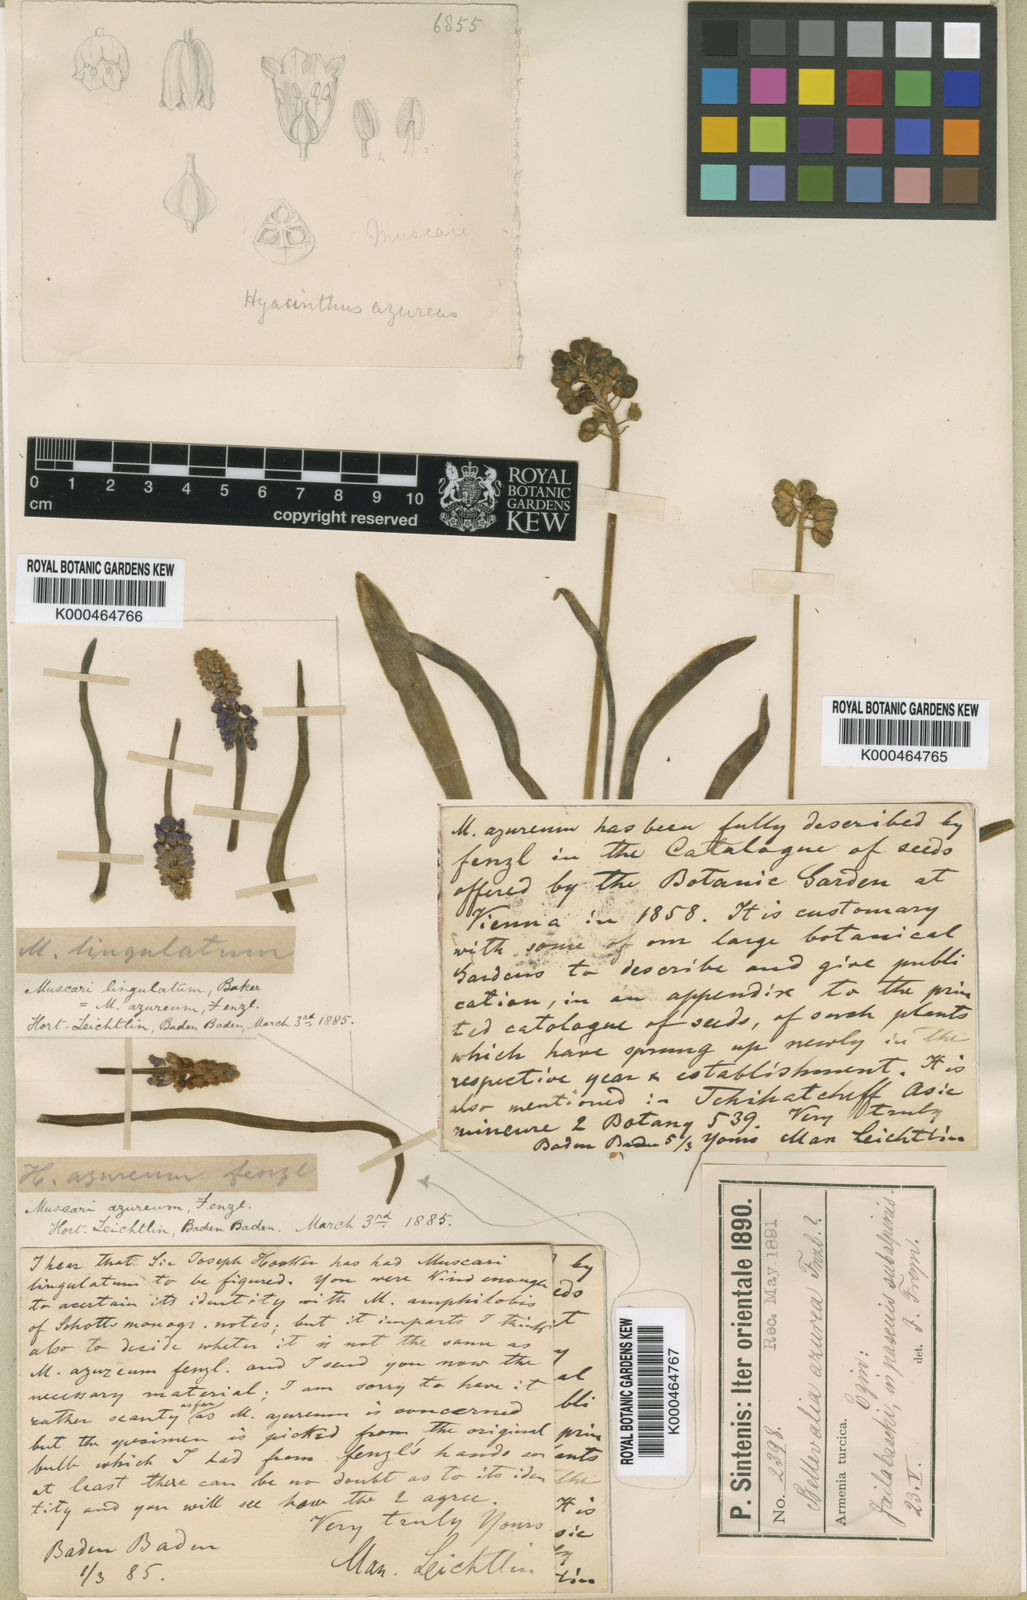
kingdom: Plantae
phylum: Tracheophyta
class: Liliopsida
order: Asparagales
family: Asparagaceae
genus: Muscari
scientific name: Muscari azureum
